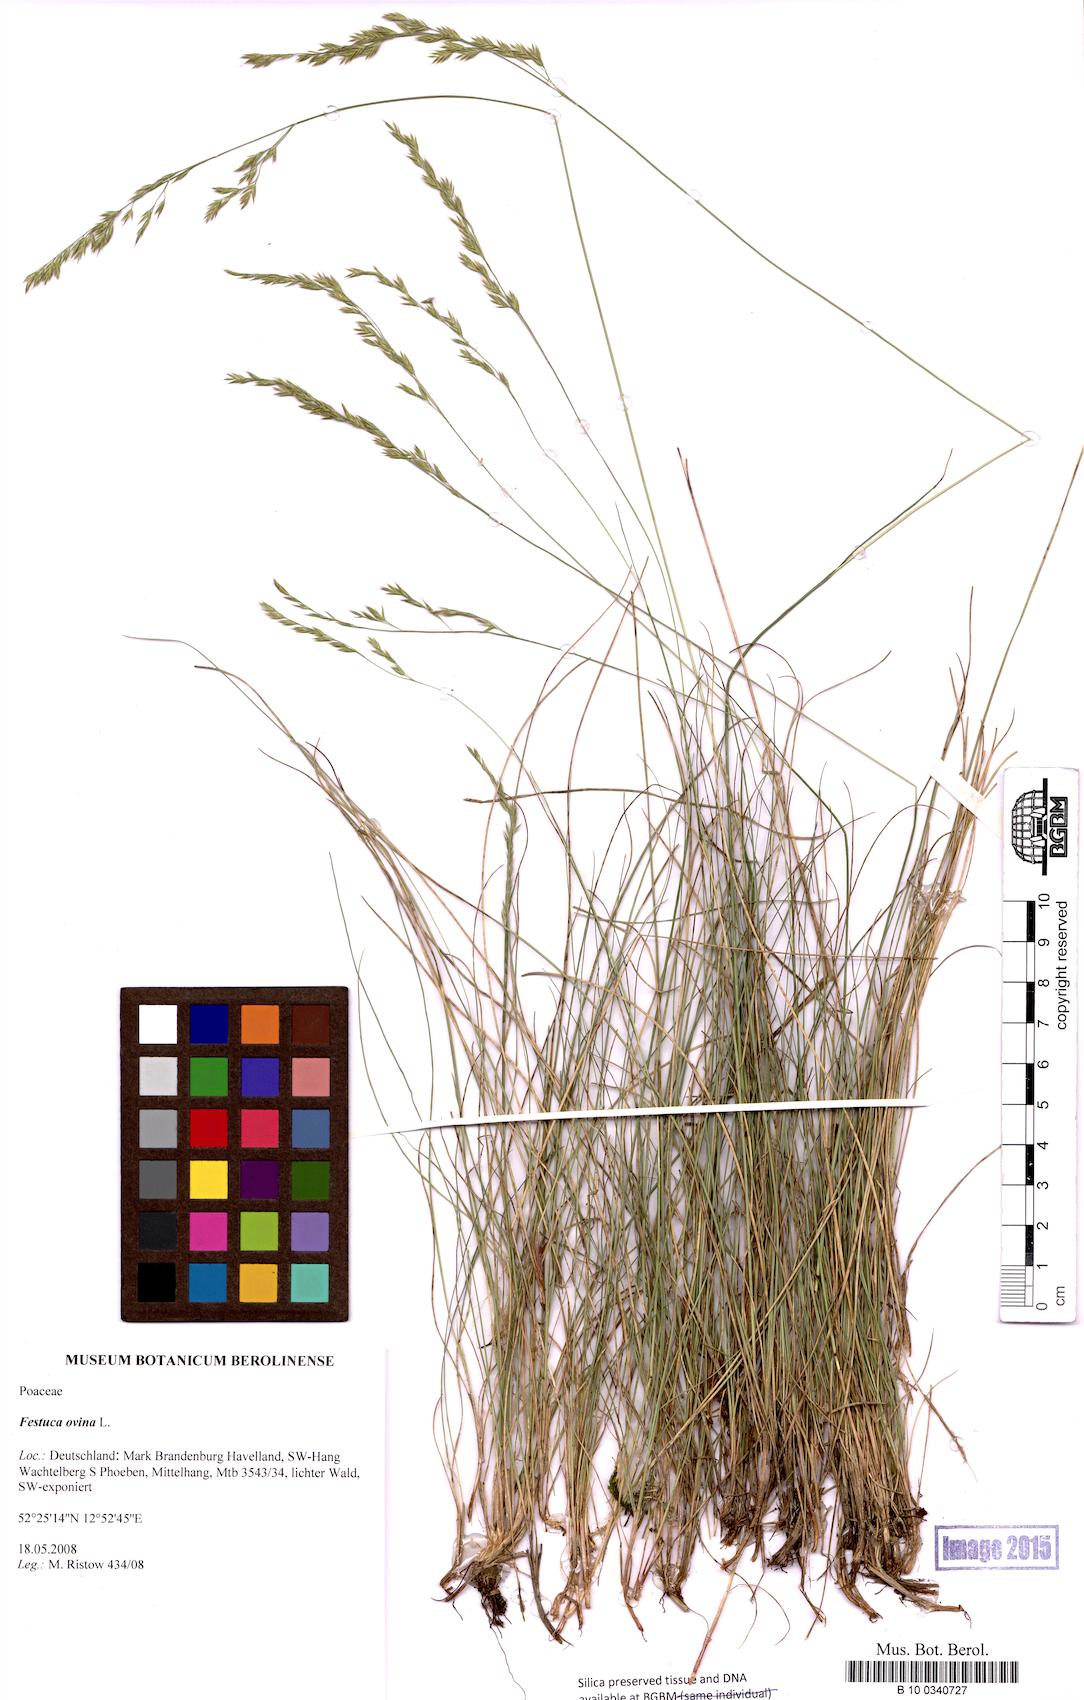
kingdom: Plantae
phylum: Tracheophyta
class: Liliopsida
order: Poales
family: Poaceae
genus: Festuca
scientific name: Festuca ovina
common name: Sheep fescue
